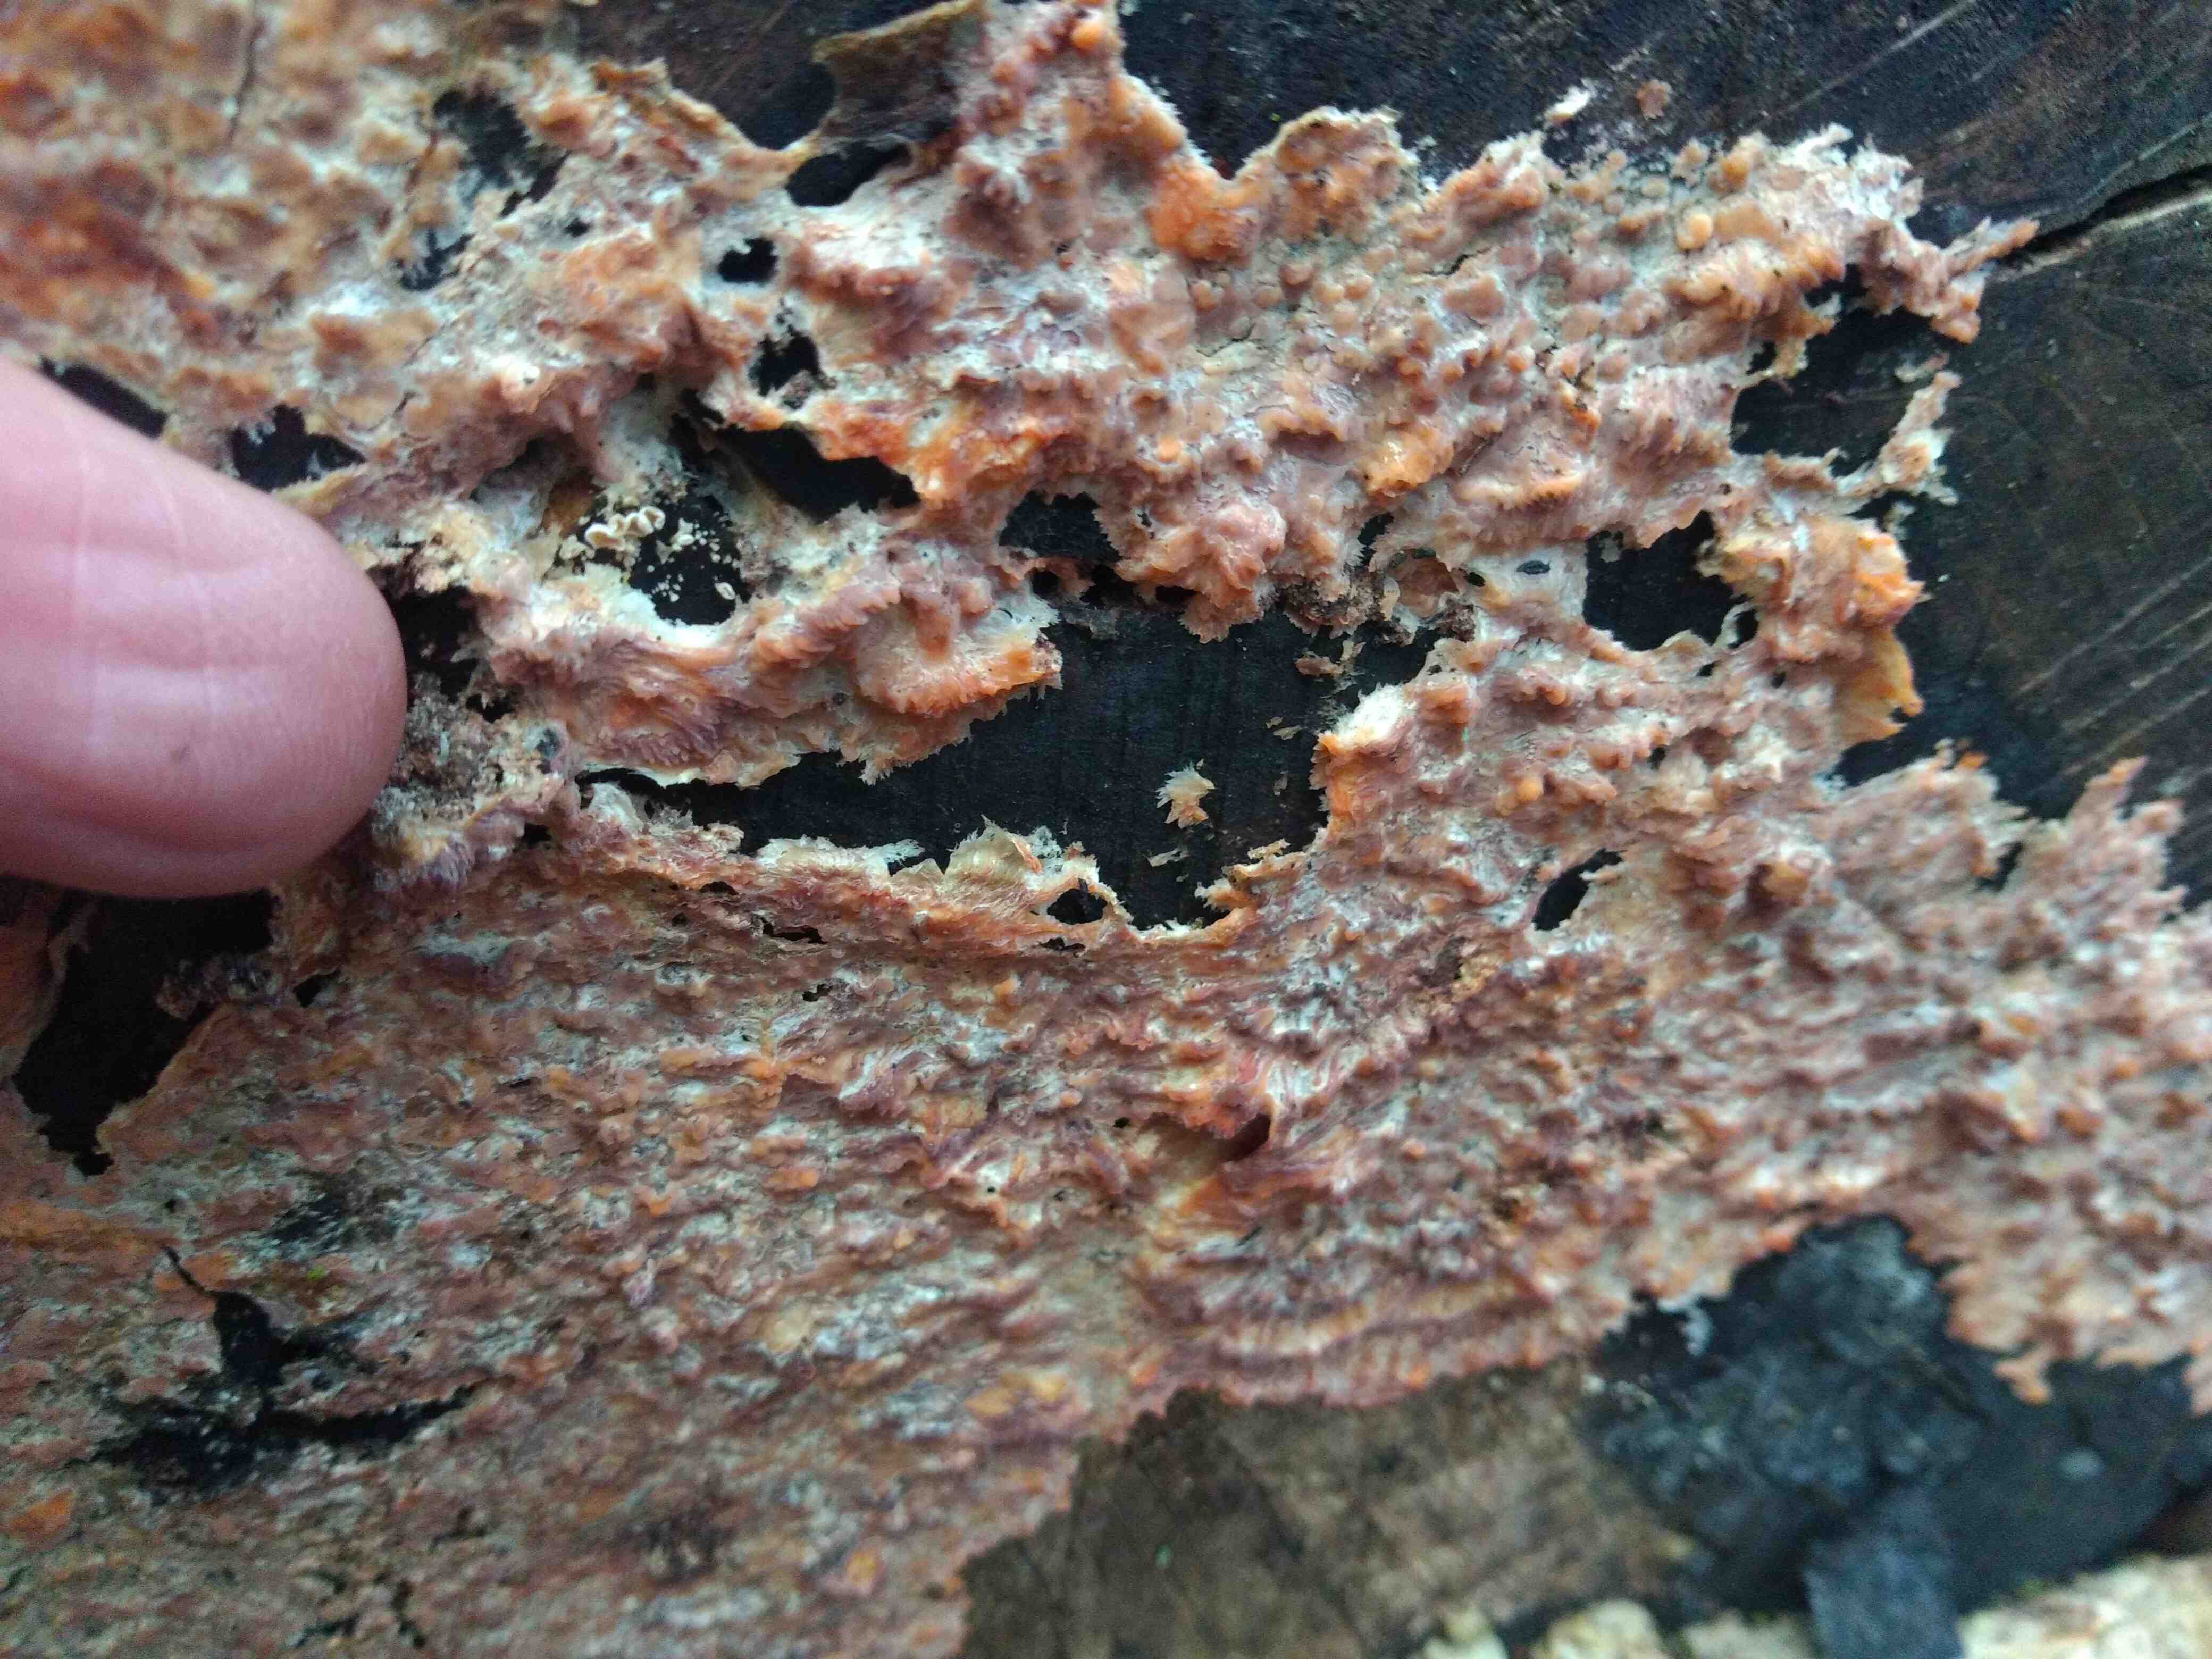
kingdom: Fungi
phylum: Basidiomycota
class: Agaricomycetes
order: Polyporales
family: Meruliaceae
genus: Phlebia
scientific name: Phlebia radiata
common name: stråle-åresvamp
